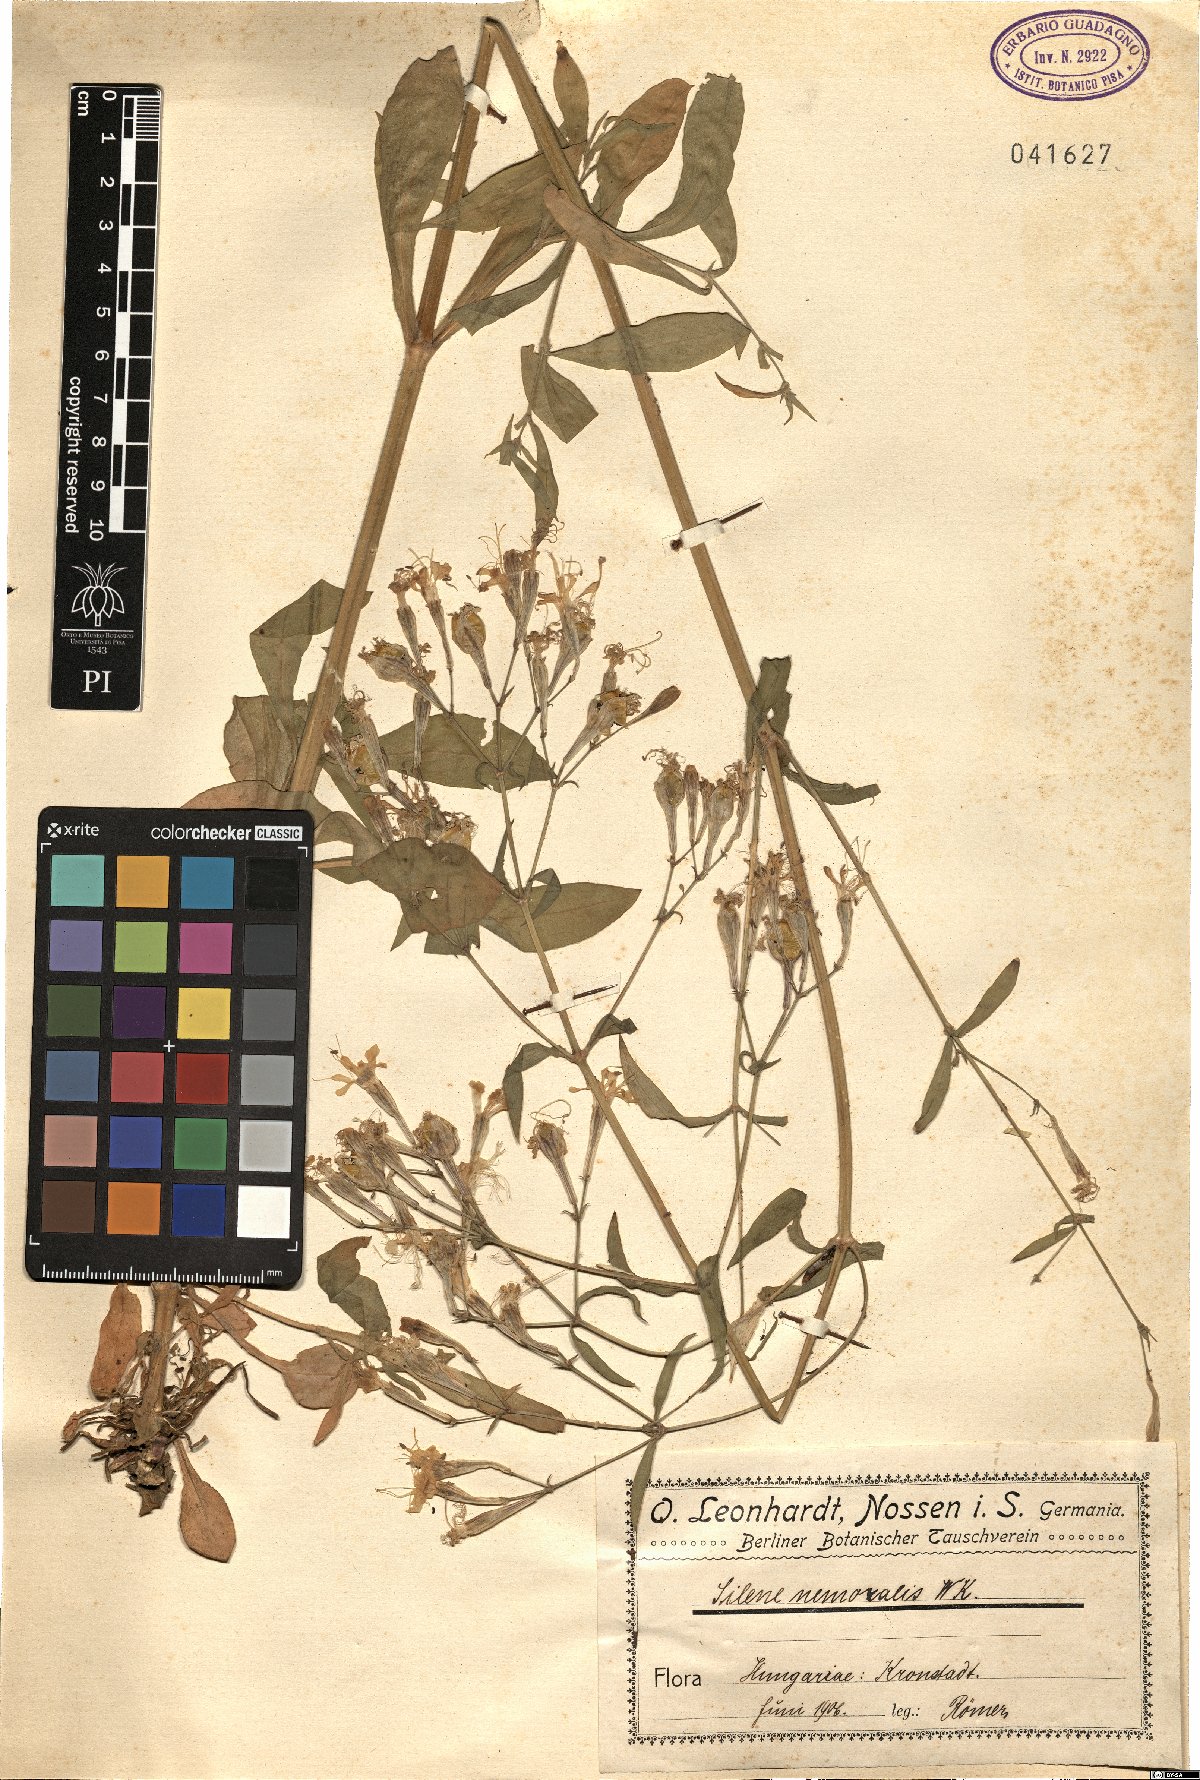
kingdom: Plantae
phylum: Tracheophyta
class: Magnoliopsida
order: Caryophyllales
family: Caryophyllaceae
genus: Silene
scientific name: Silene nemoralis
